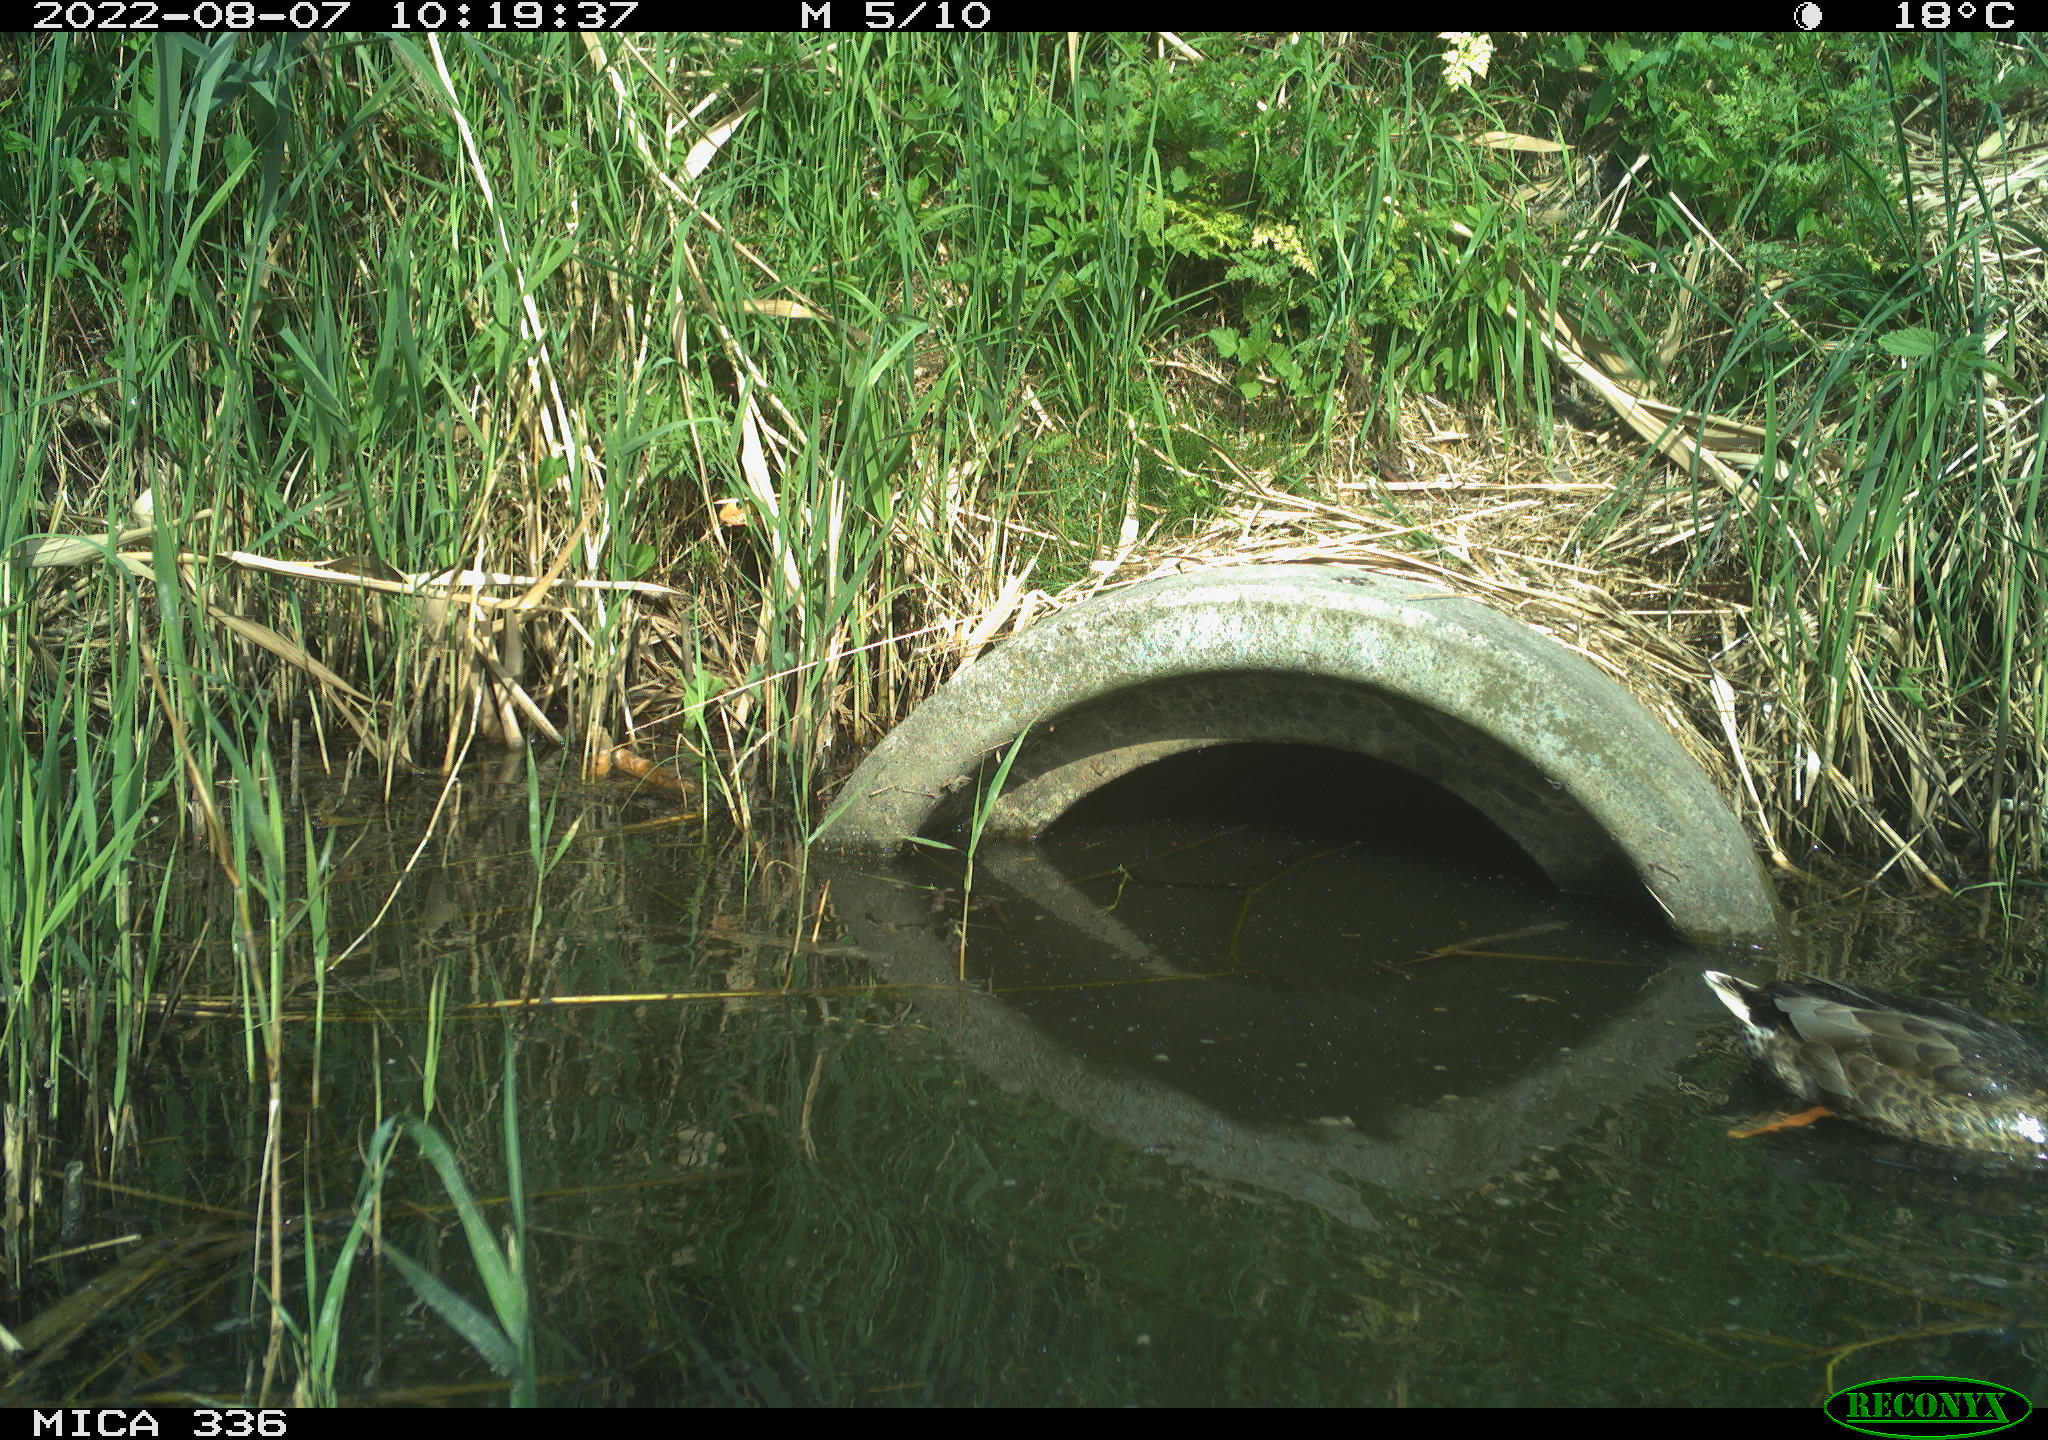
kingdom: Animalia
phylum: Chordata
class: Aves
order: Anseriformes
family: Anatidae
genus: Anas
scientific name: Anas platyrhynchos
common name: Mallard
